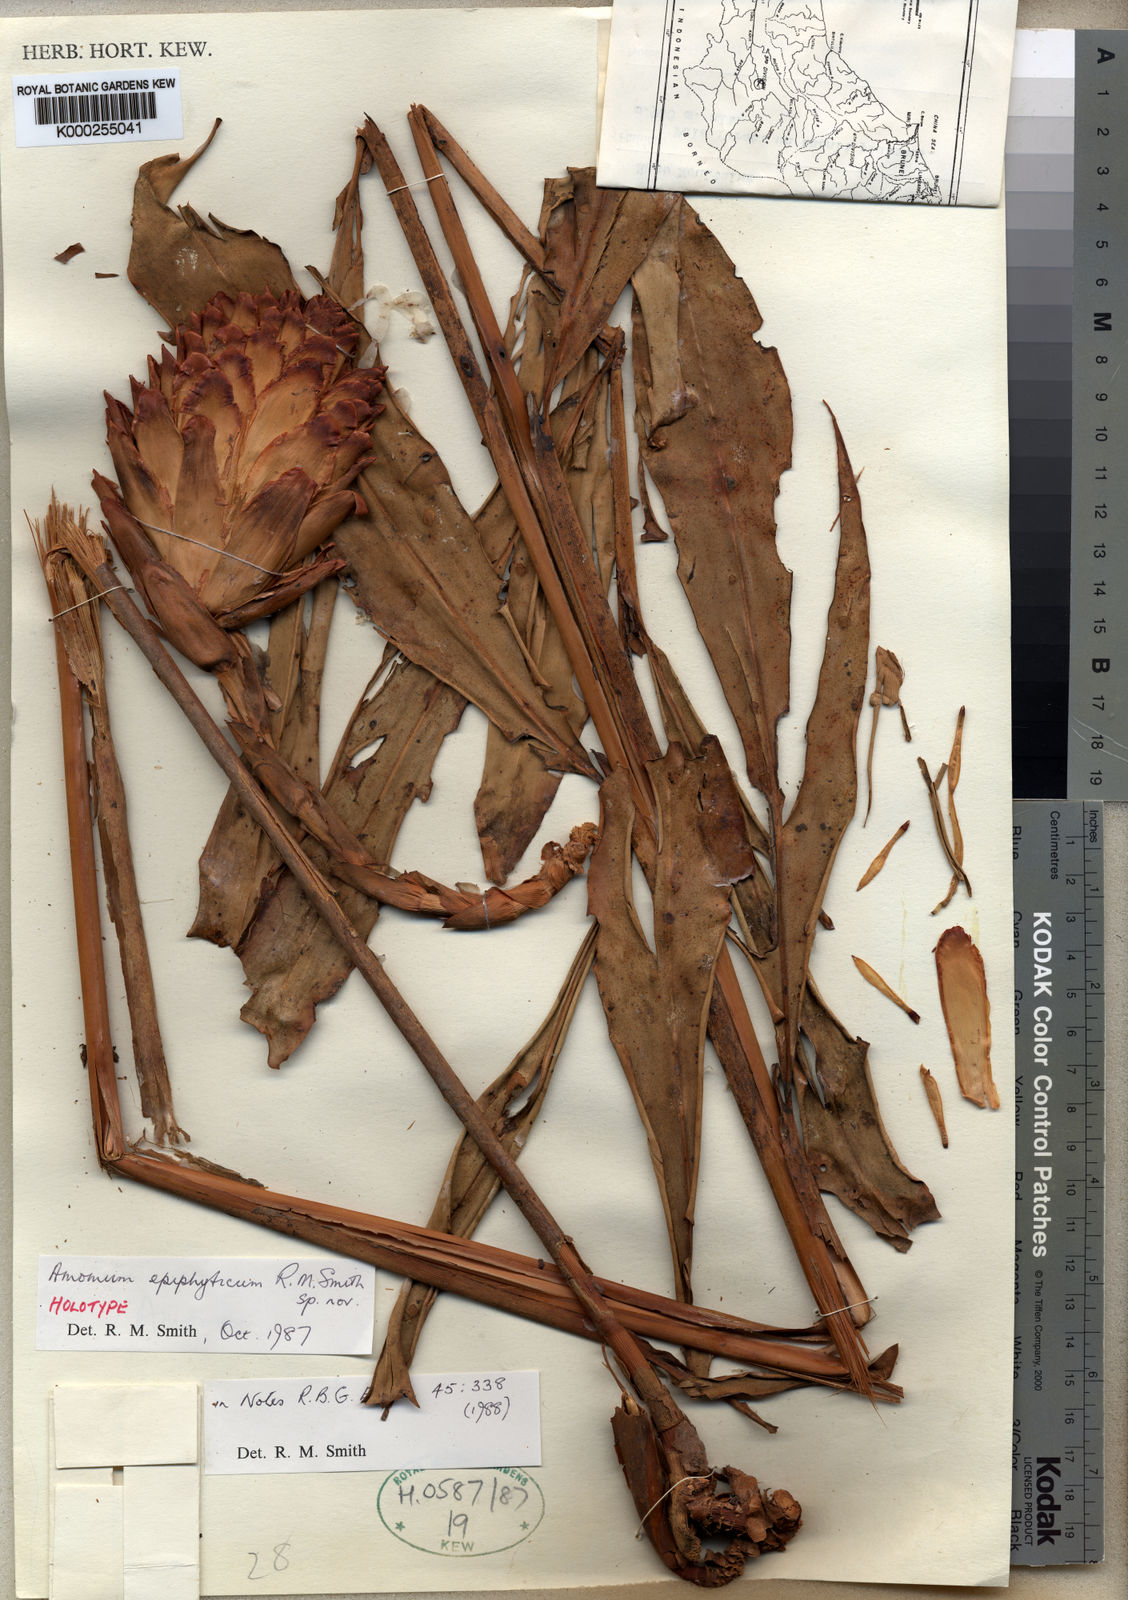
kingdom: Plantae
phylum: Tracheophyta
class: Liliopsida
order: Zingiberales
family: Zingiberaceae
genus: Epiamomum
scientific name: Epiamomum epiphyticum
